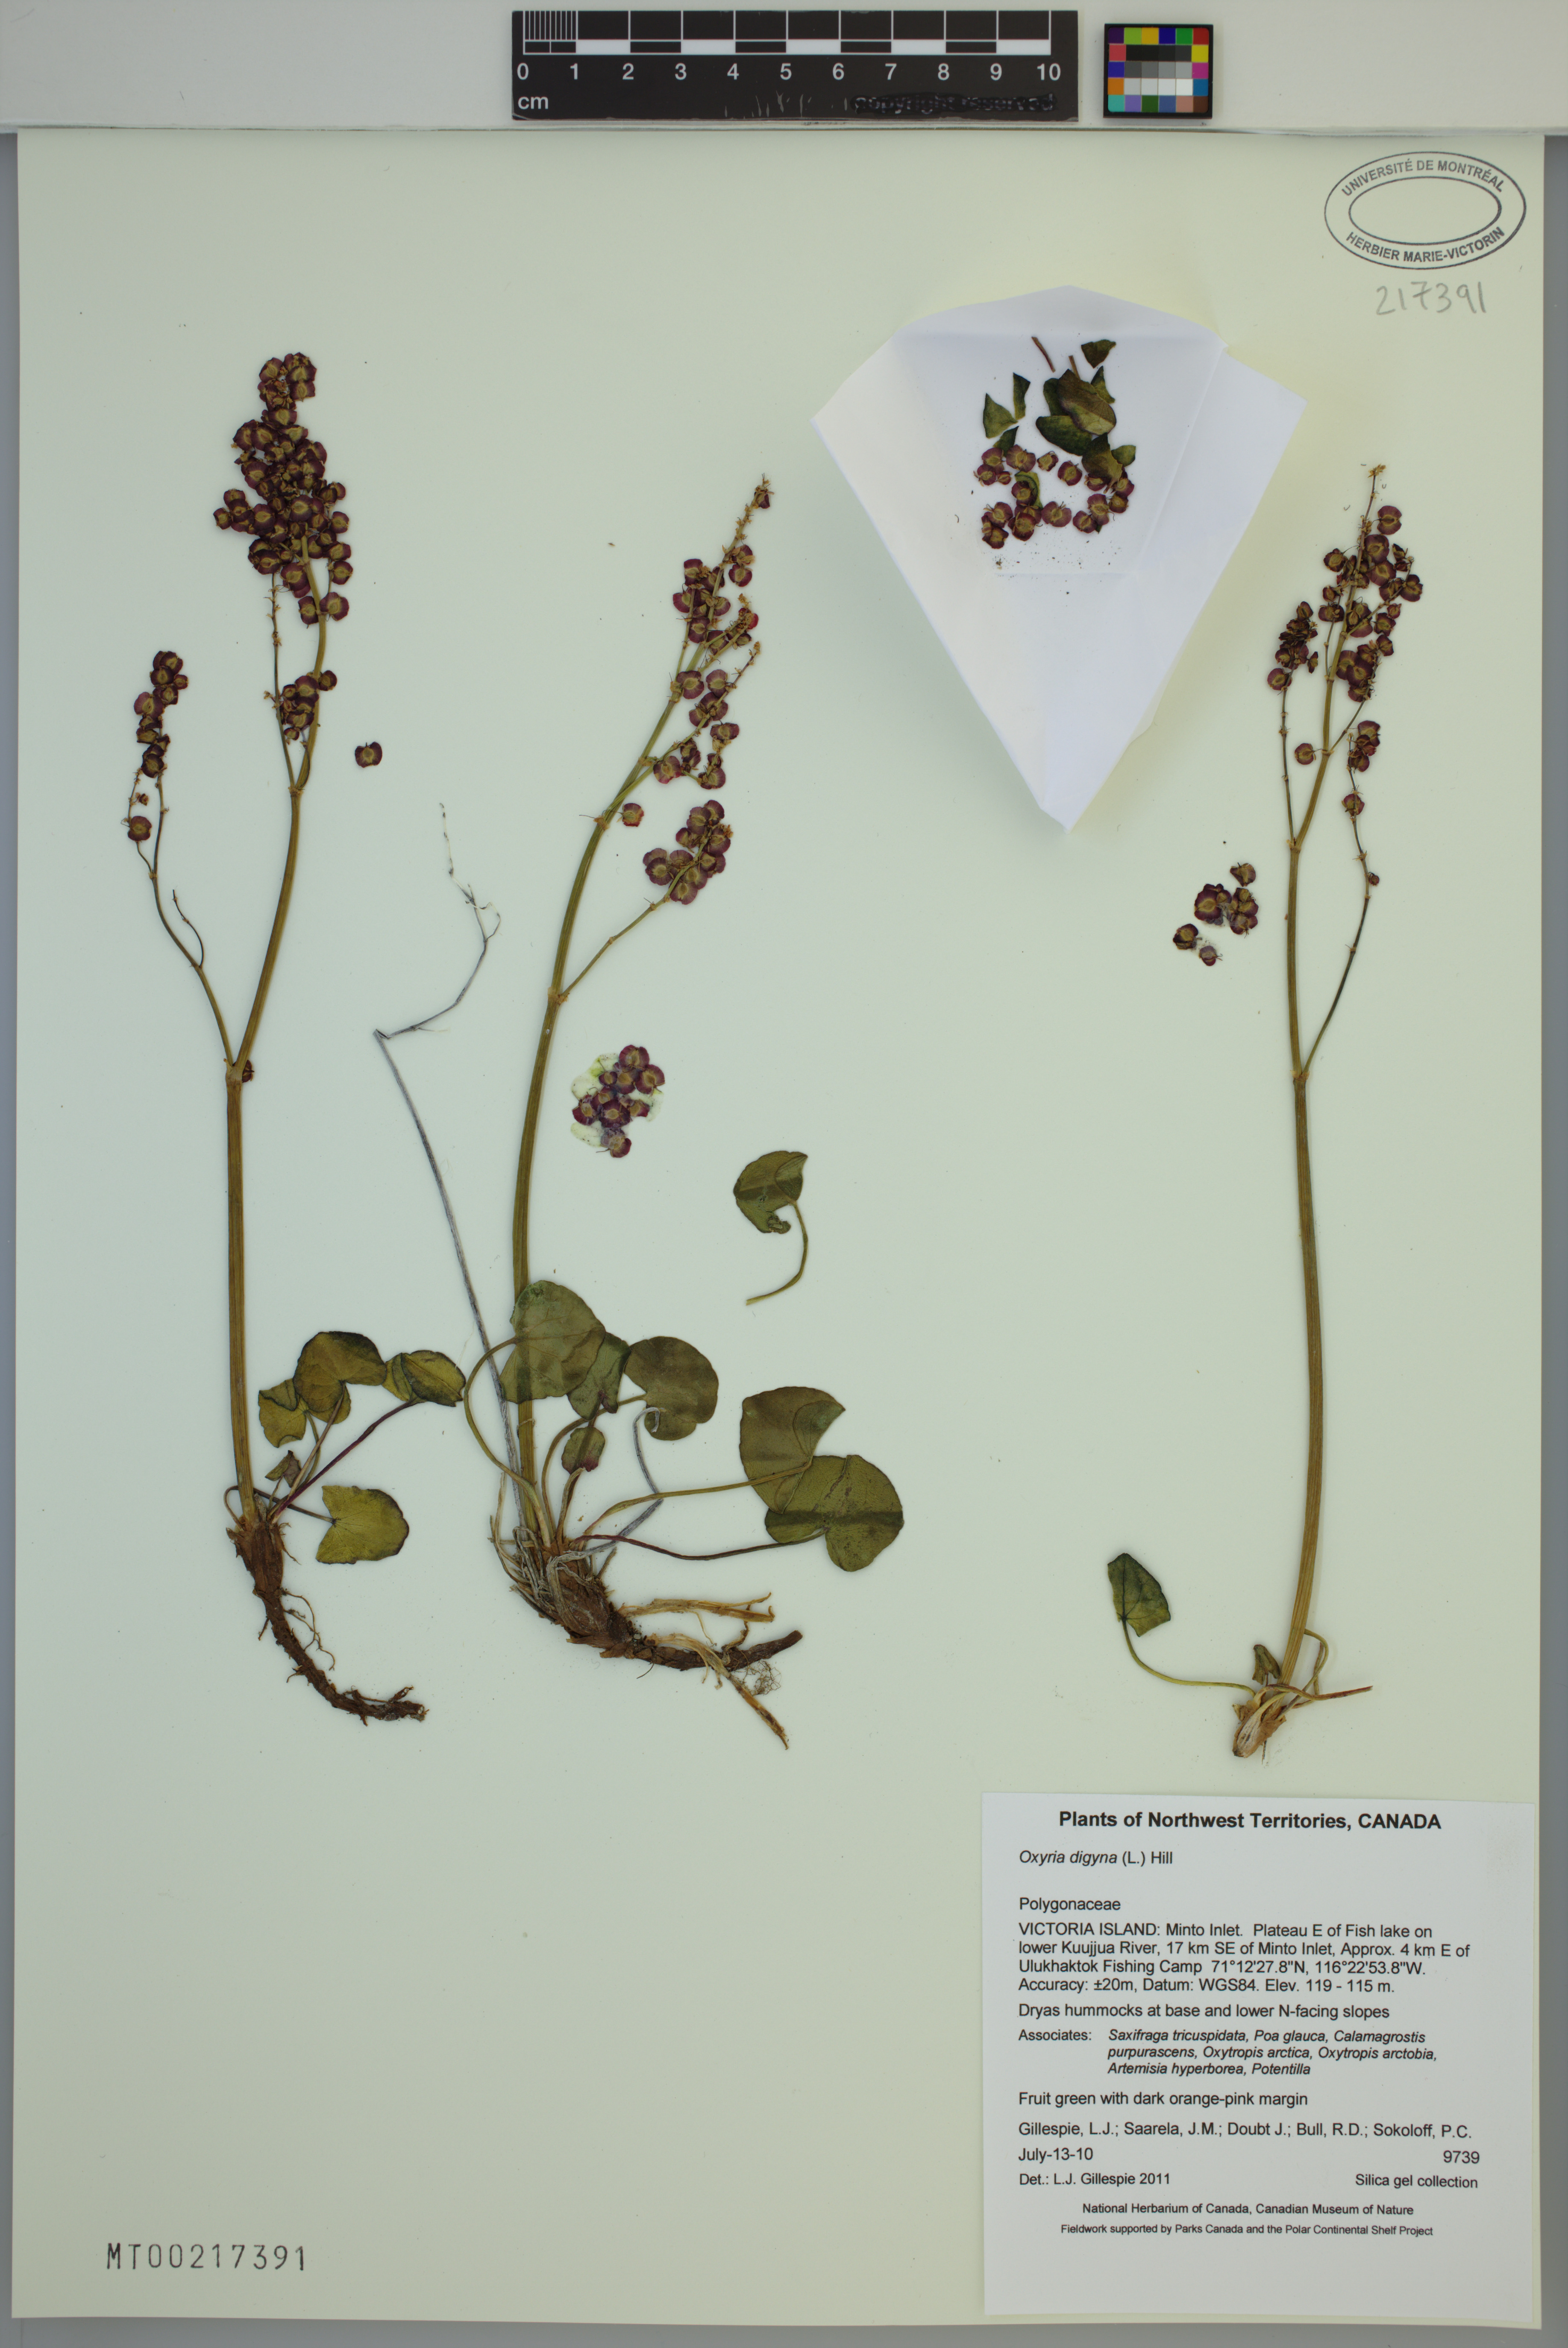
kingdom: Plantae
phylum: Tracheophyta
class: Magnoliopsida
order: Caryophyllales
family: Polygonaceae
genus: Oxyria
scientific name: Oxyria digyna
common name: Alpine mountain-sorrel
